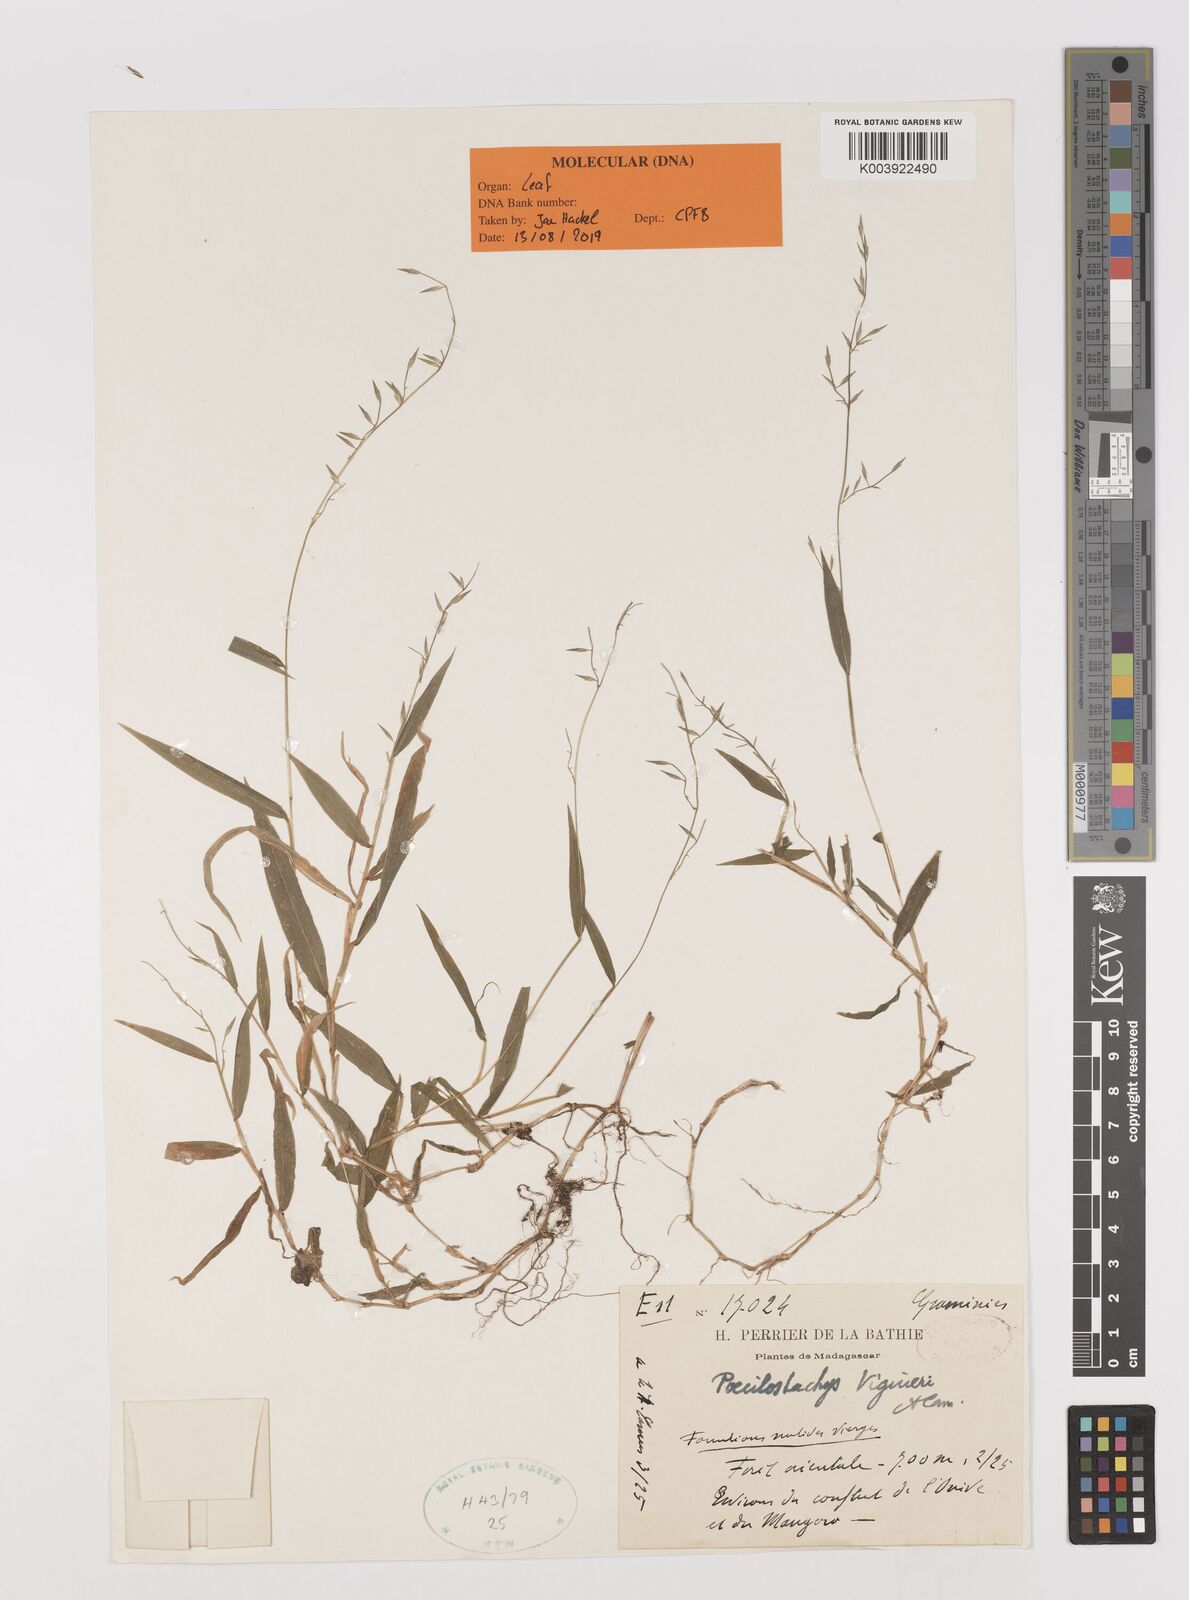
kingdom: Plantae
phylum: Tracheophyta
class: Liliopsida
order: Poales
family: Poaceae
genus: Poecilostachys
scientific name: Poecilostachys viguieri
